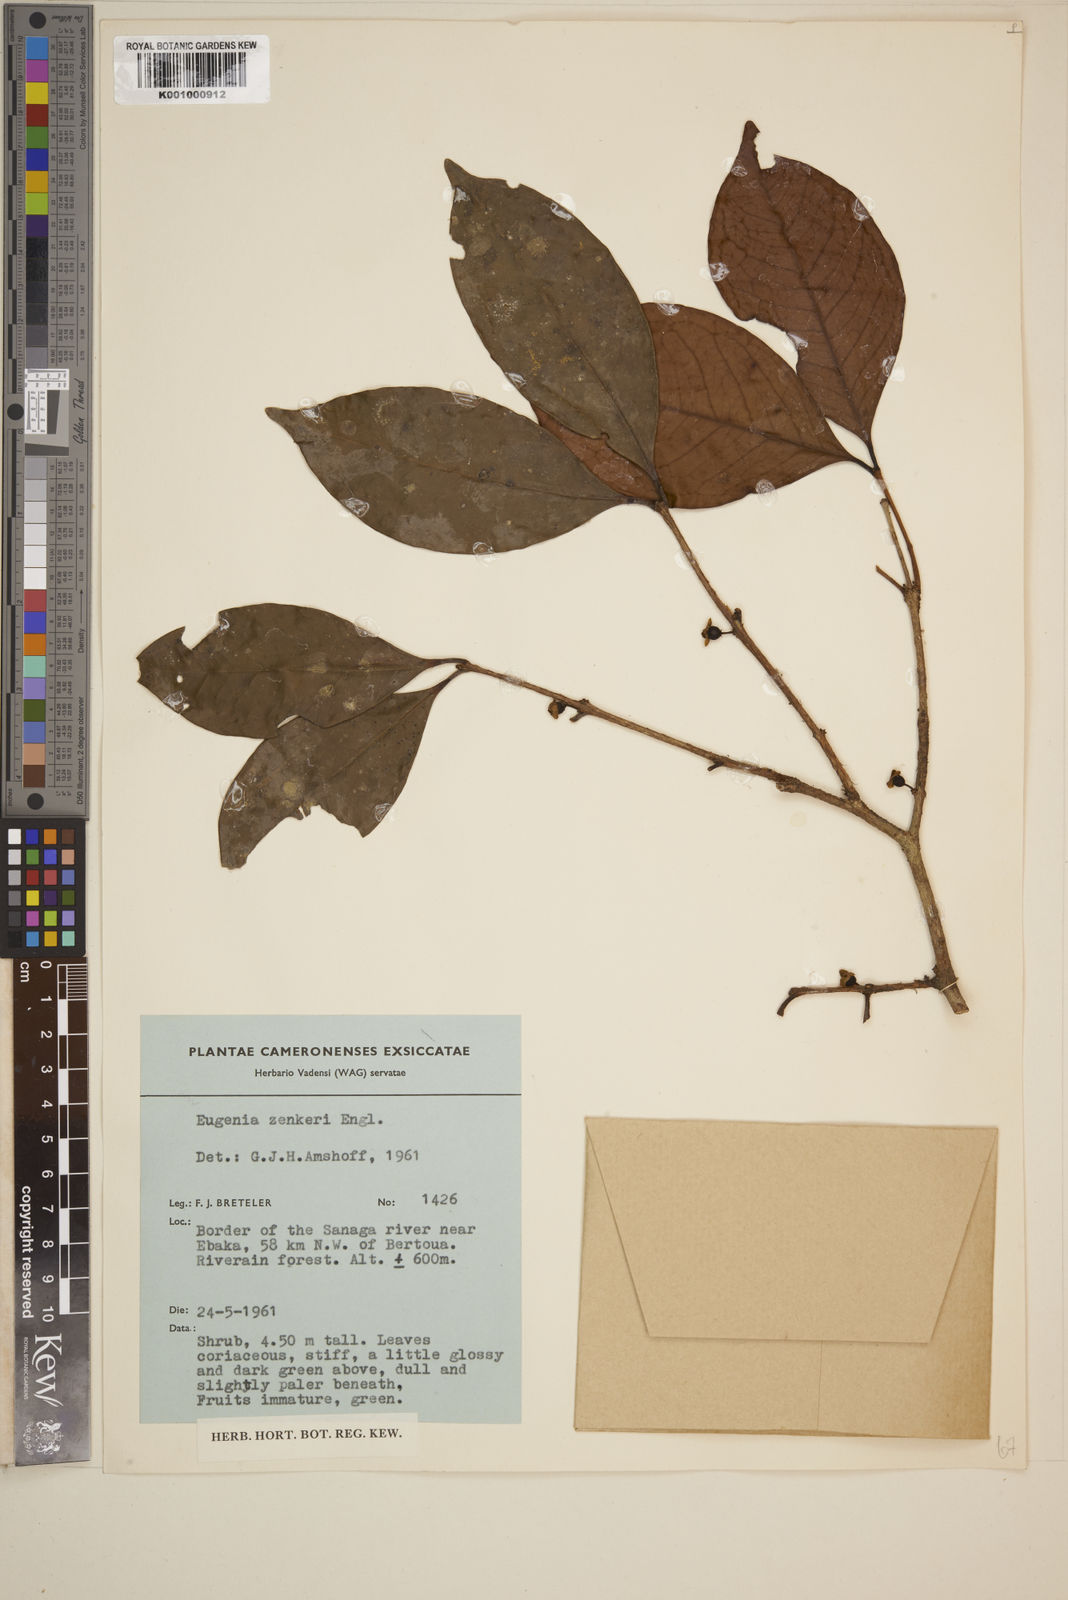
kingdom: Plantae
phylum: Tracheophyta
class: Magnoliopsida
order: Myrtales
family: Myrtaceae
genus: Eugenia
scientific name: Eugenia zenkeri
